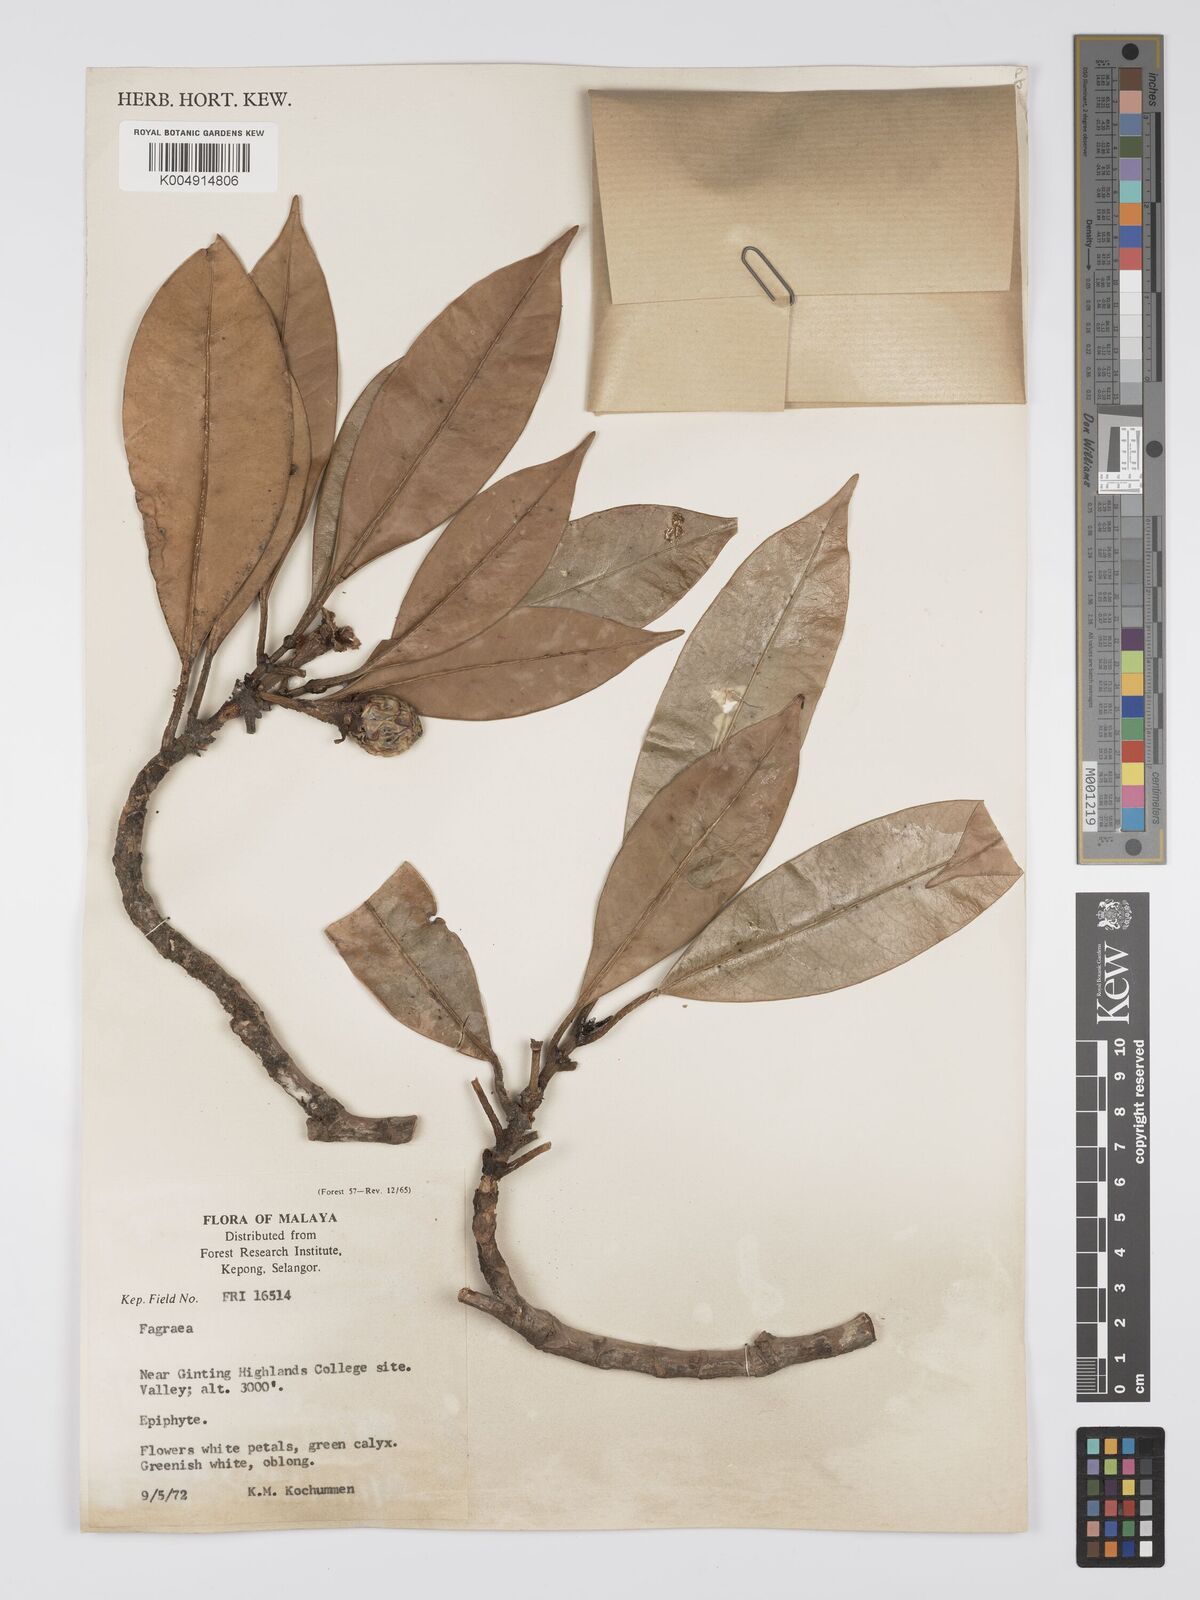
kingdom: Plantae
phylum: Tracheophyta
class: Magnoliopsida
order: Gentianales
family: Gentianaceae
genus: Fagraea
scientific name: Fagraea oblonga
